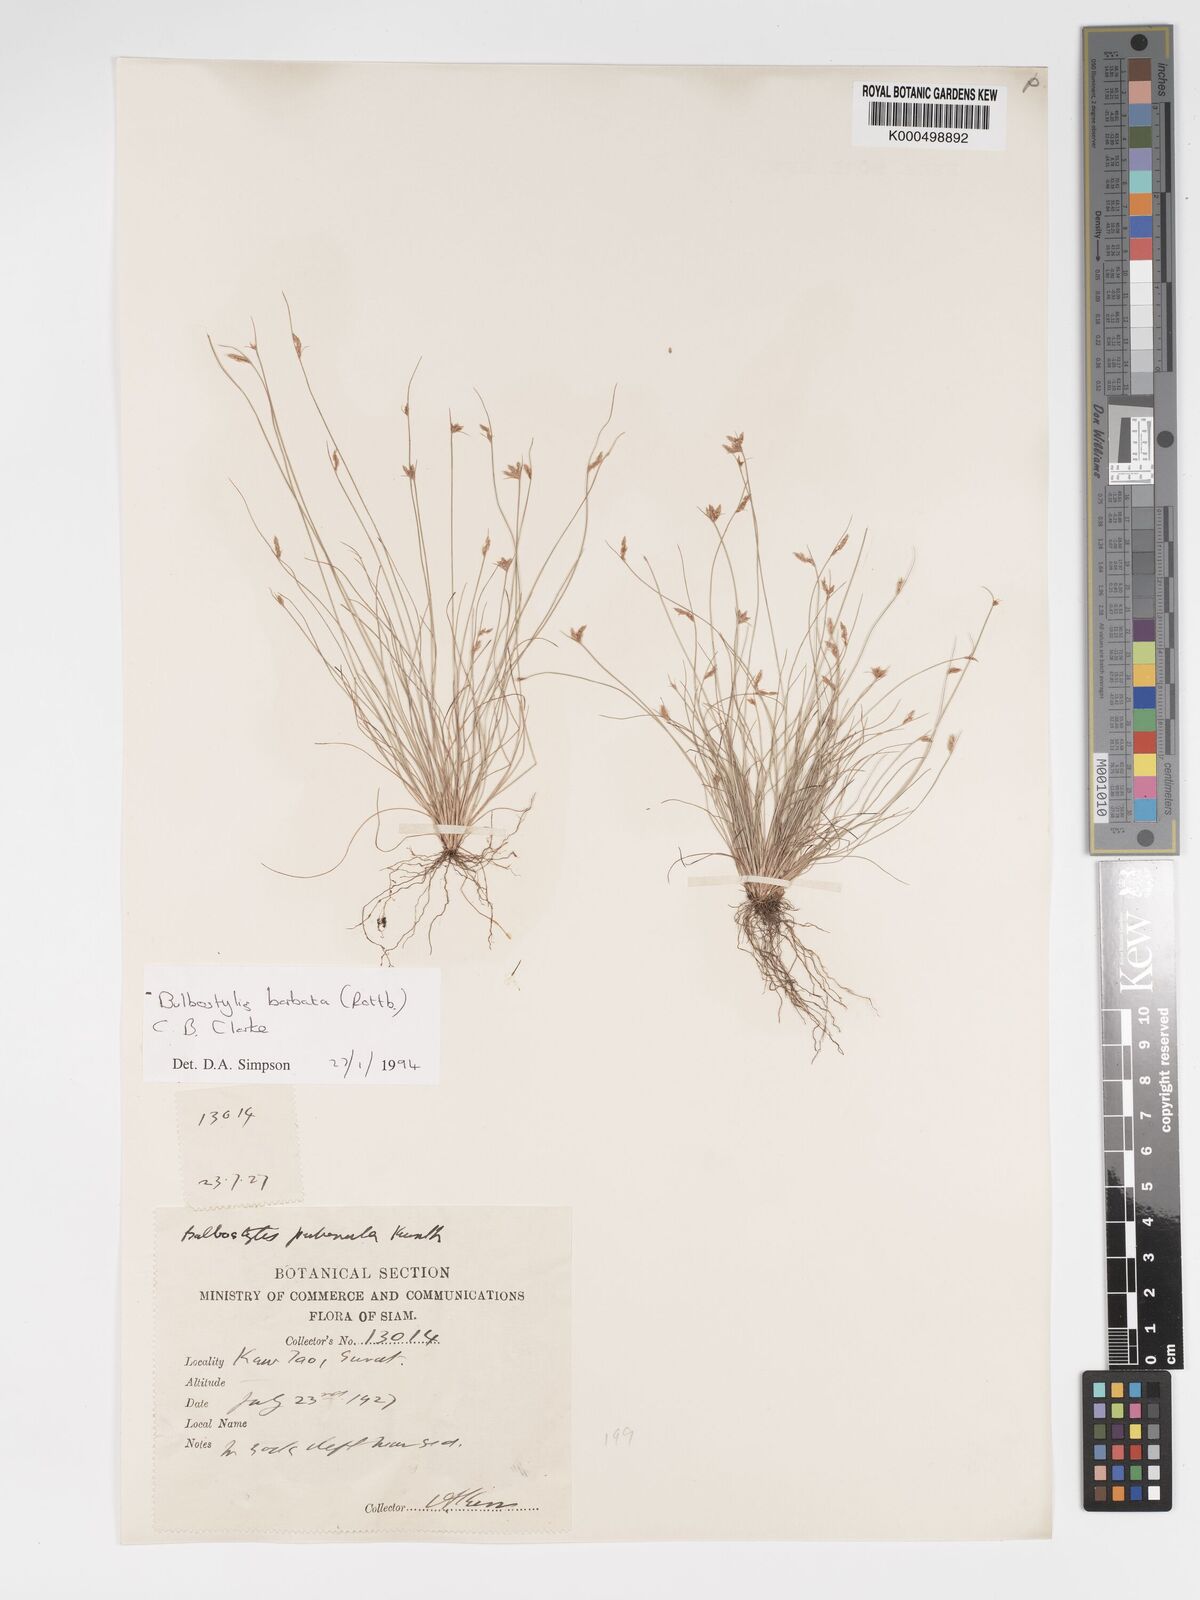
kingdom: Plantae
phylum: Tracheophyta
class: Liliopsida
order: Poales
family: Cyperaceae
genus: Bulbostylis
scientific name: Bulbostylis barbata
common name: Watergrass
